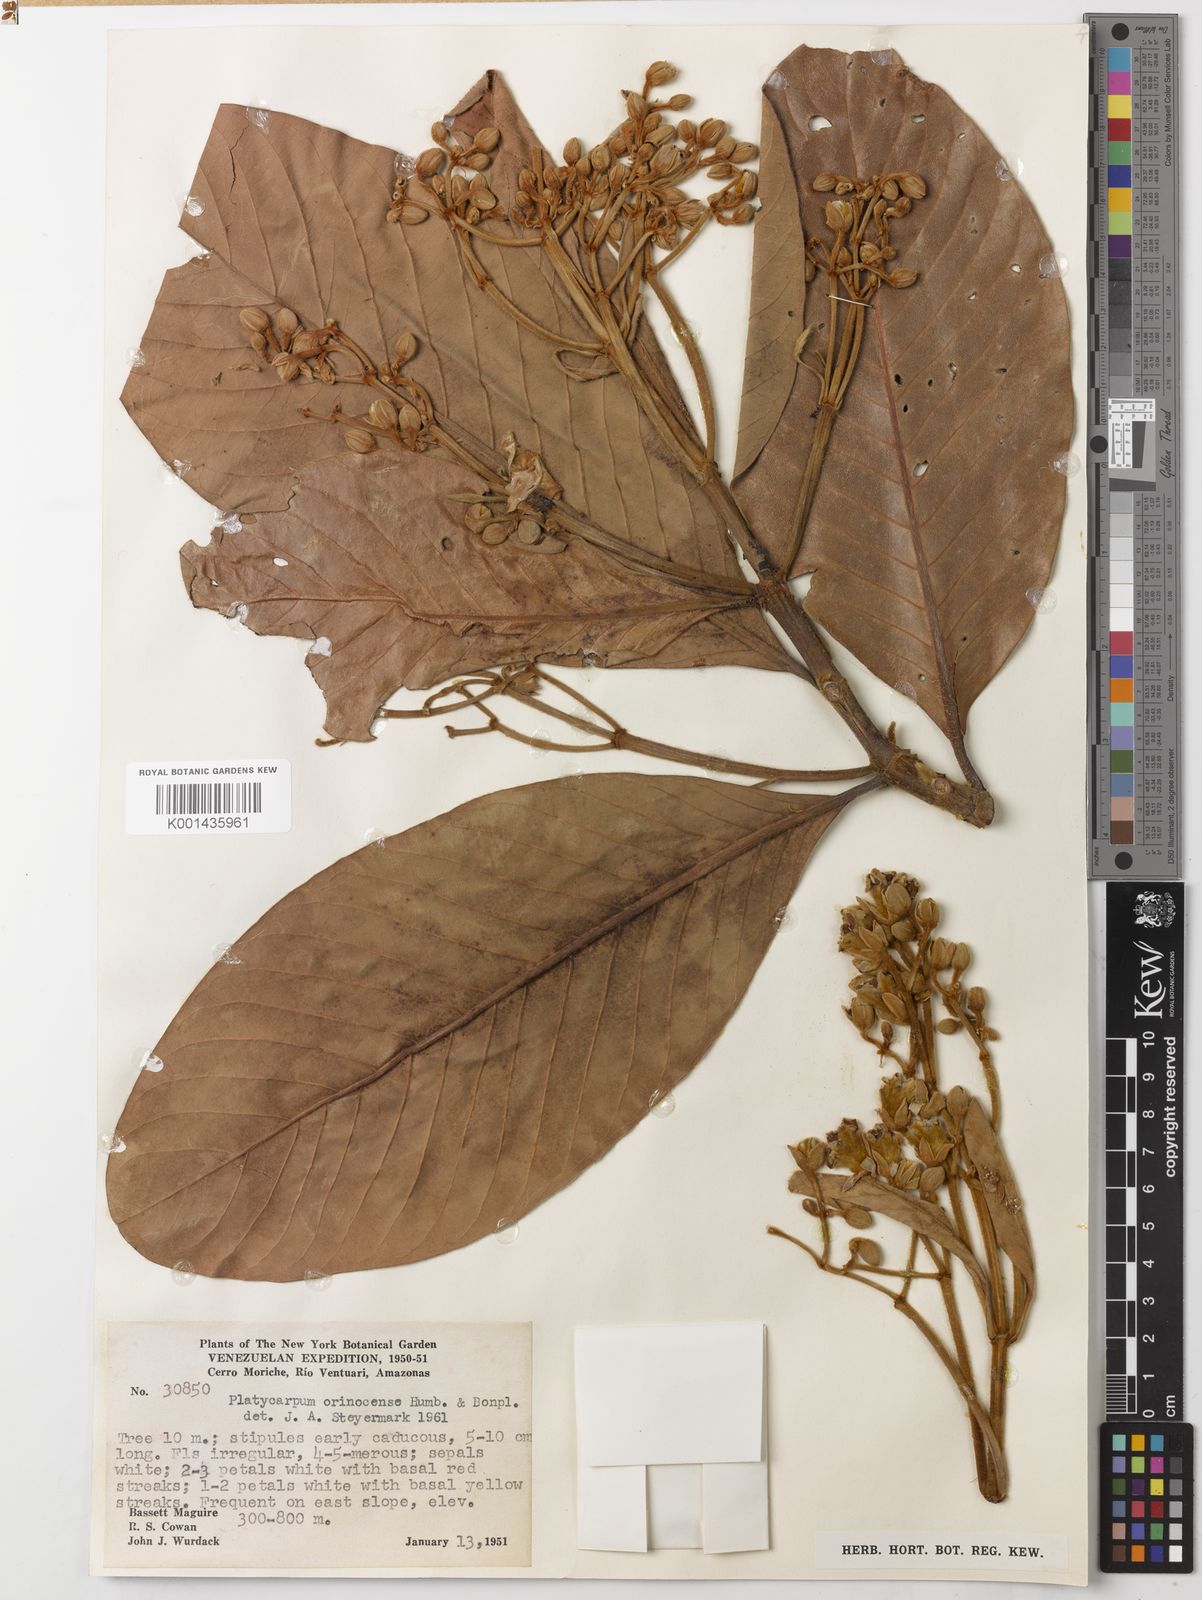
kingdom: Plantae
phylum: Tracheophyta
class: Magnoliopsida
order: Gentianales
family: Rubiaceae
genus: Platycarpum
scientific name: Platycarpum orinocense
